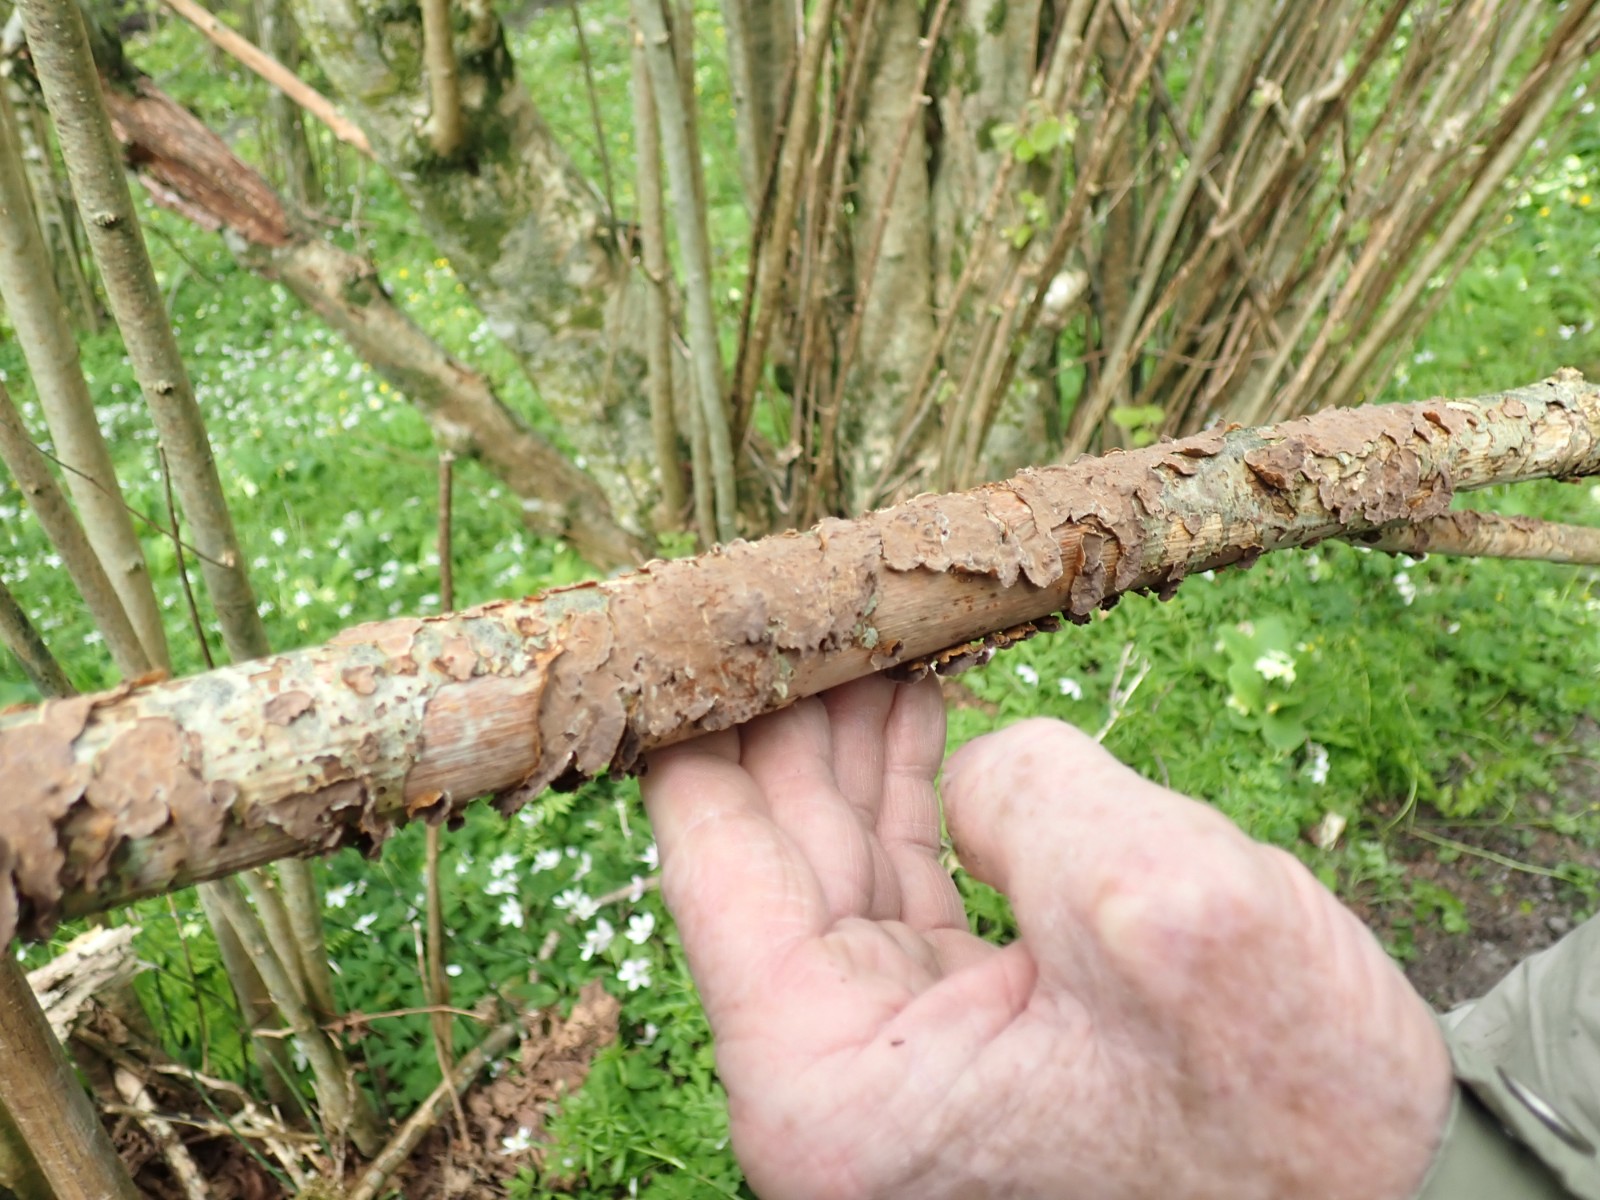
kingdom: Fungi
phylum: Basidiomycota
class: Agaricomycetes
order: Hymenochaetales
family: Hymenochaetaceae
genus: Hydnoporia
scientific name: Hydnoporia tabacina
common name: tobaksbrun ruslædersvamp
